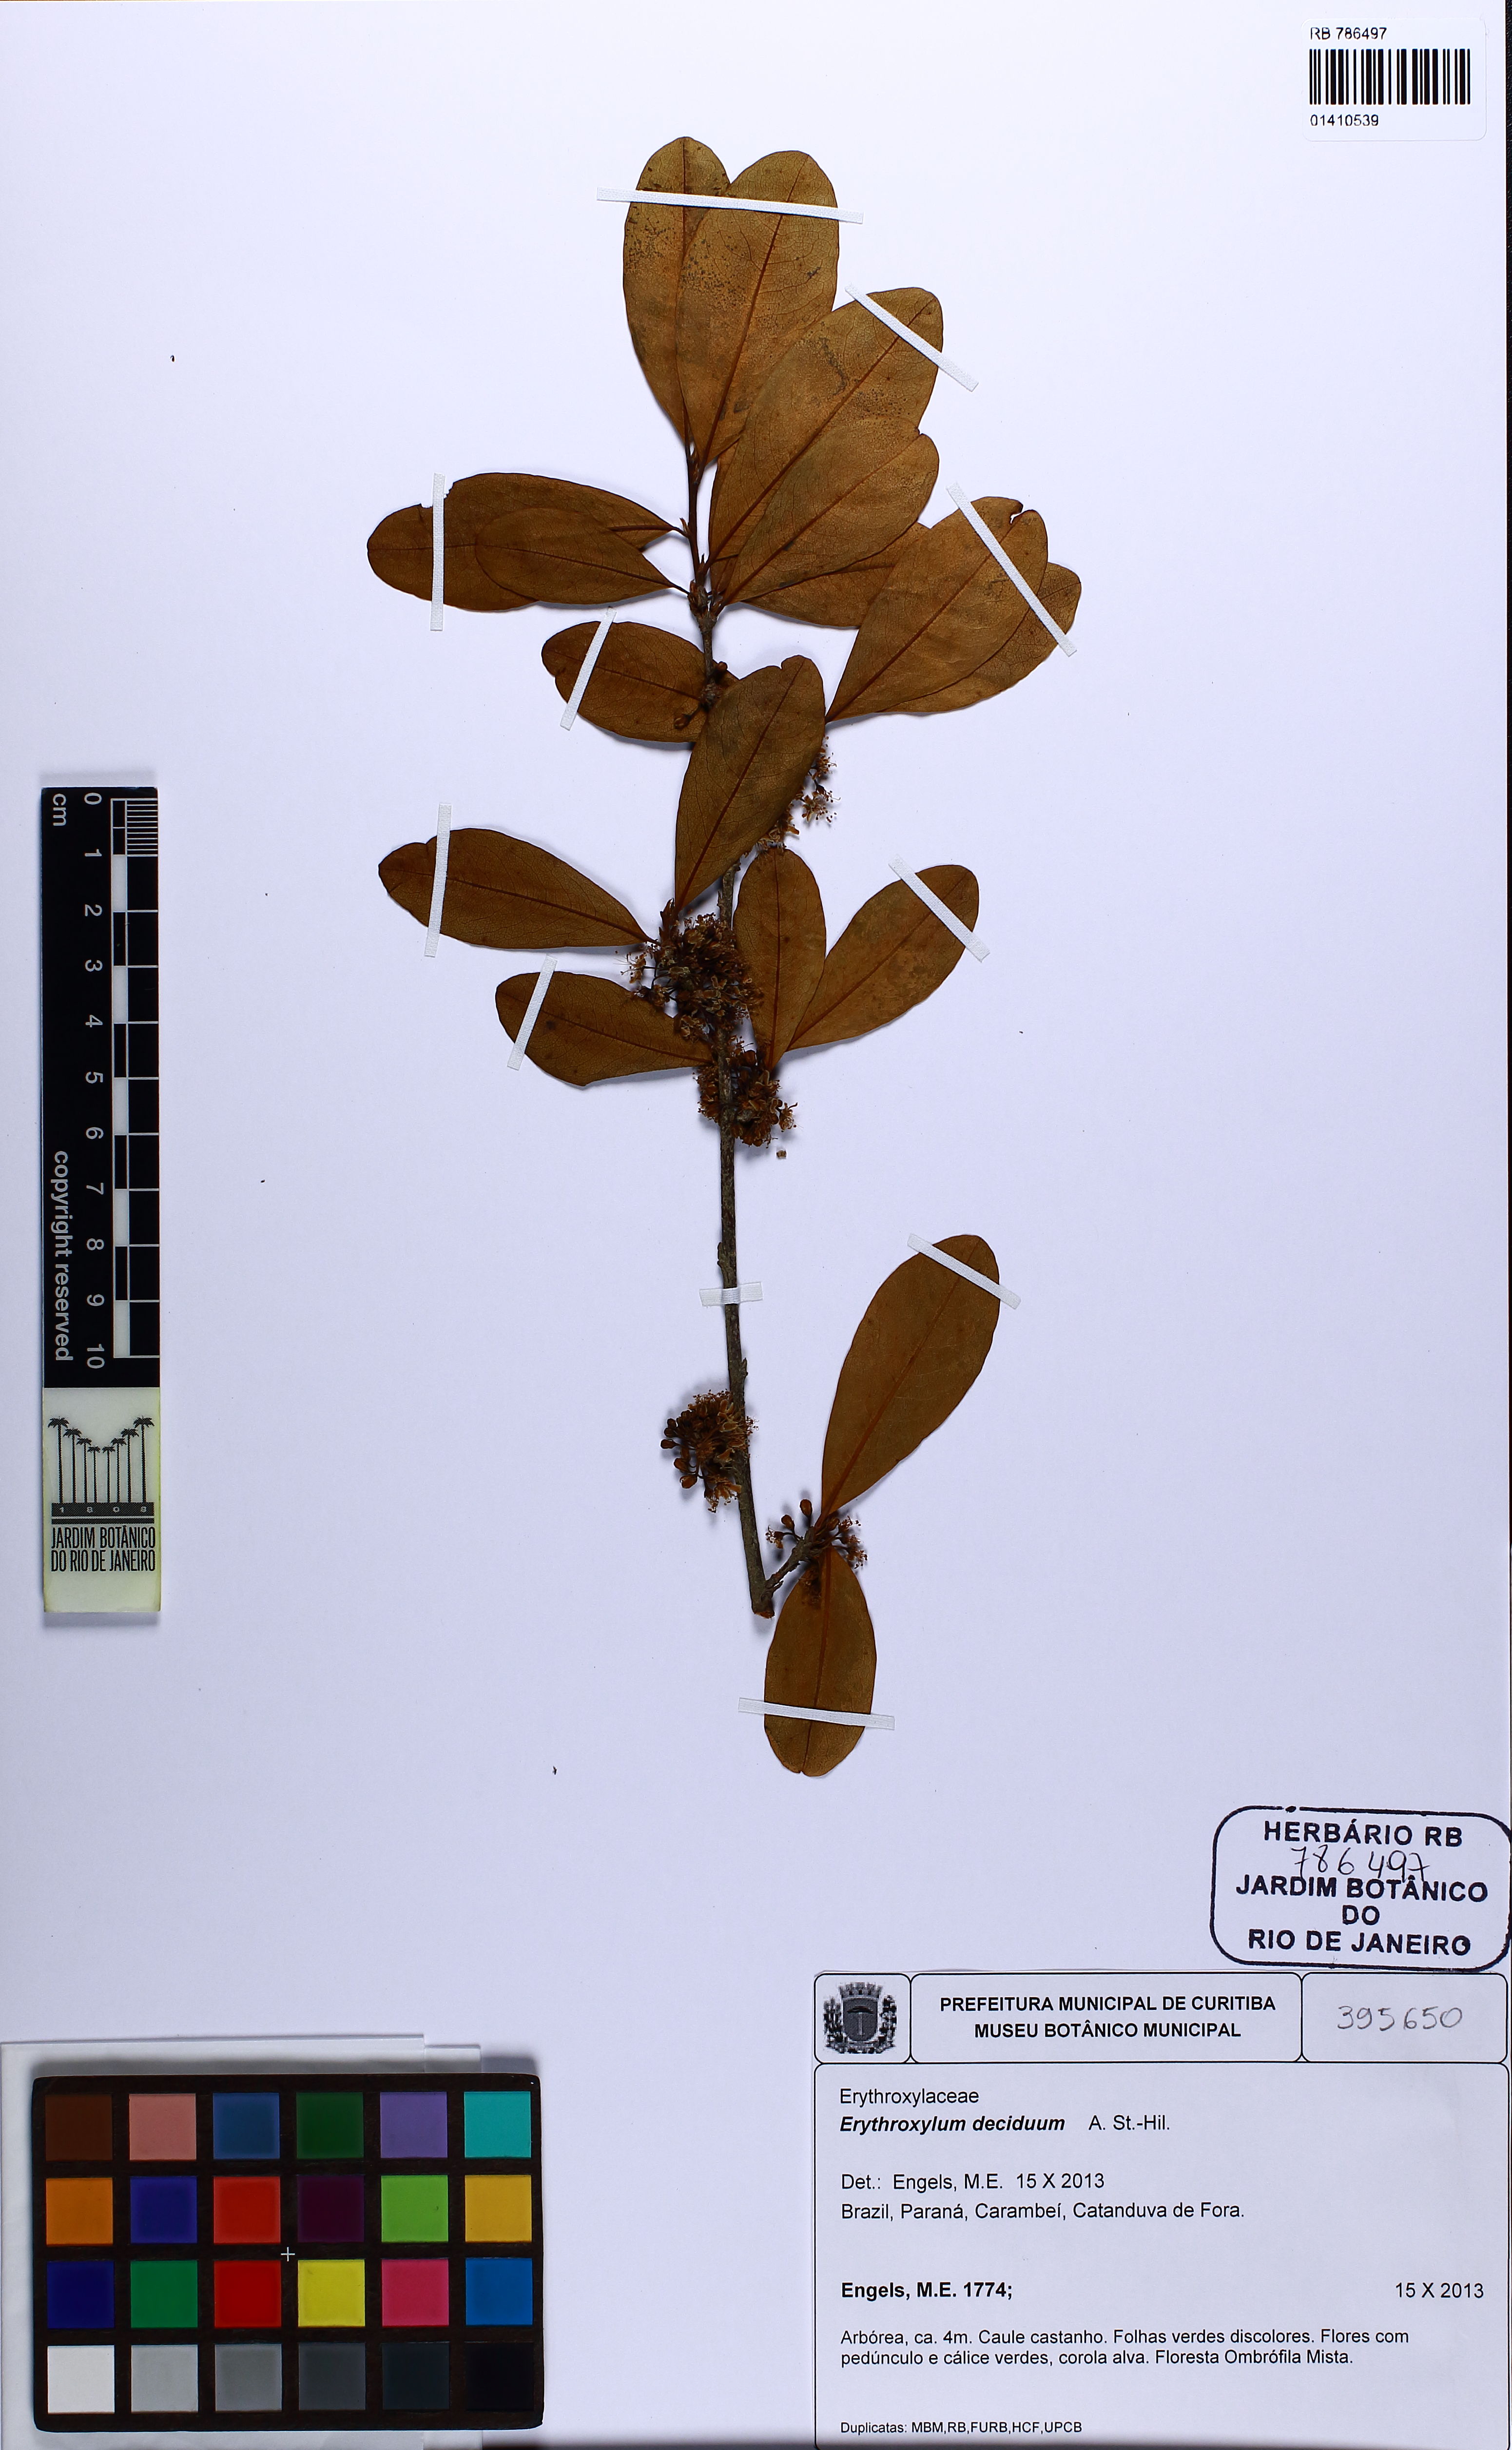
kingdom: Plantae
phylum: Tracheophyta
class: Magnoliopsida
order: Malpighiales
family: Erythroxylaceae
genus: Erythroxylum
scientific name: Erythroxylum deciduum
